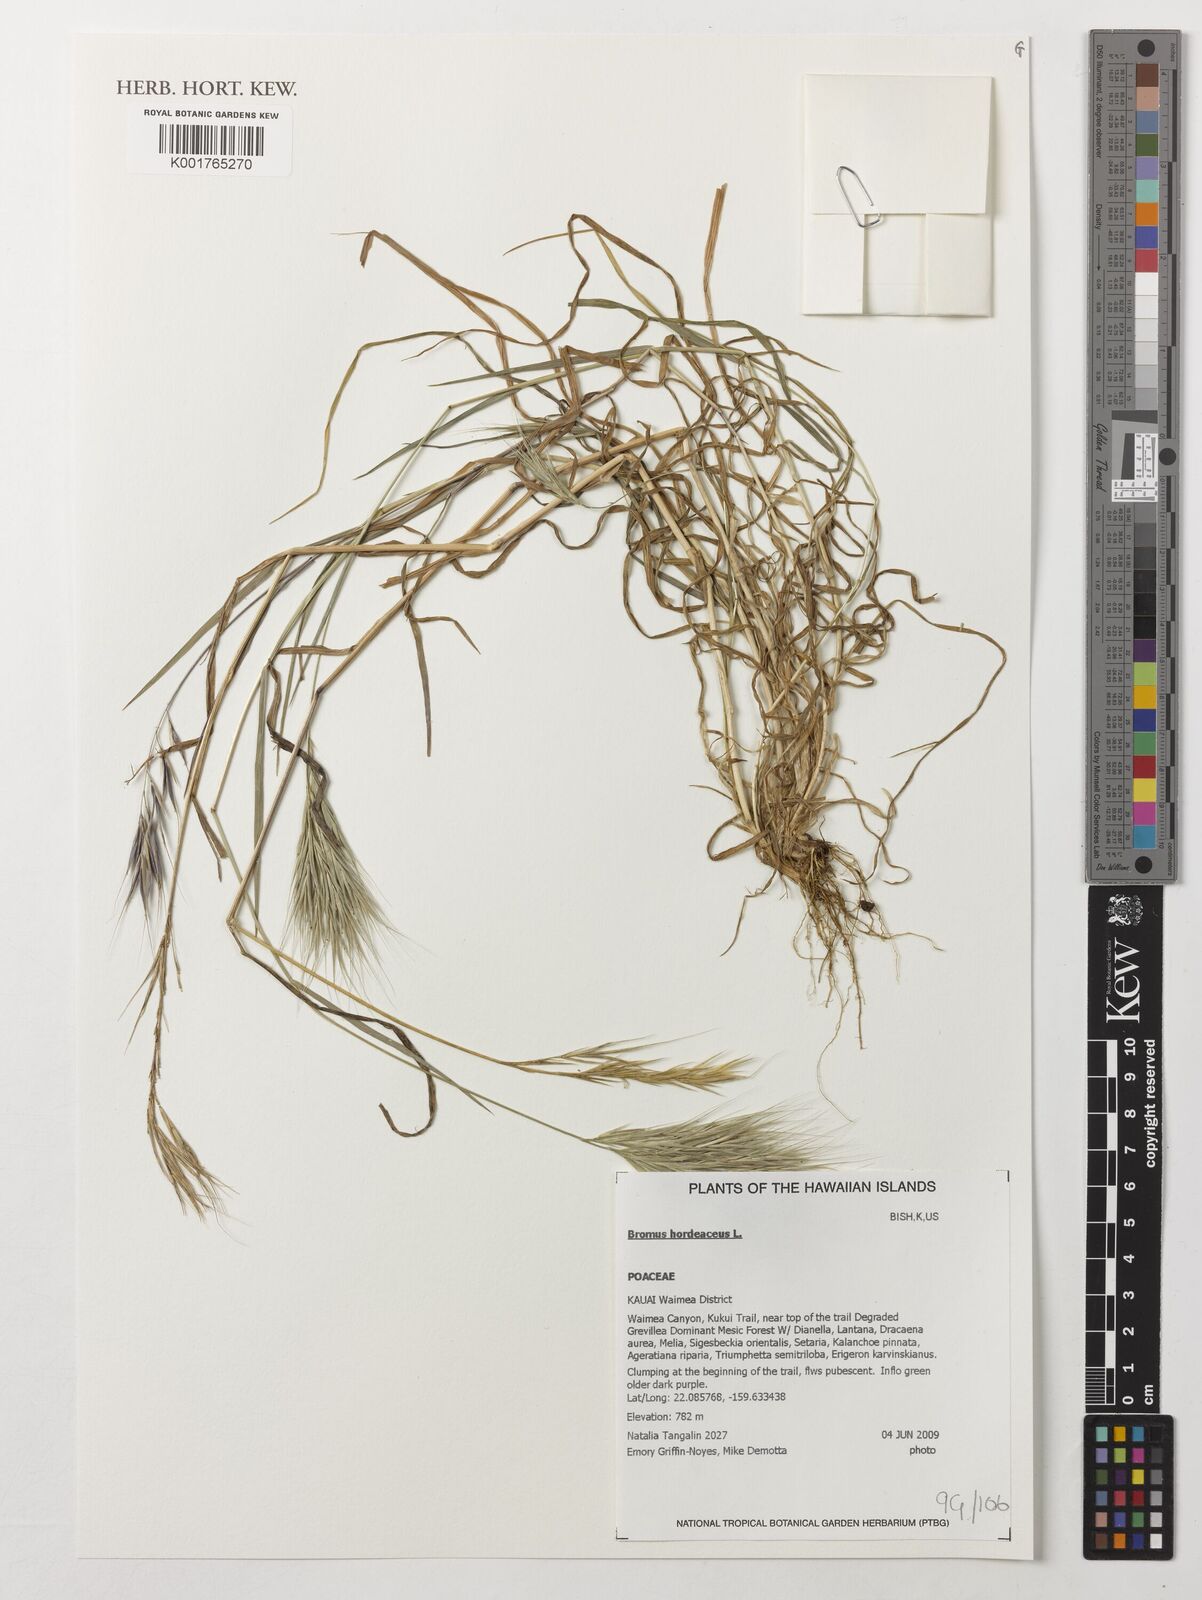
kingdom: Plantae
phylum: Tracheophyta
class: Liliopsida
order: Poales
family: Poaceae
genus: Bromus
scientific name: Bromus hordeaceus
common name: Soft brome
